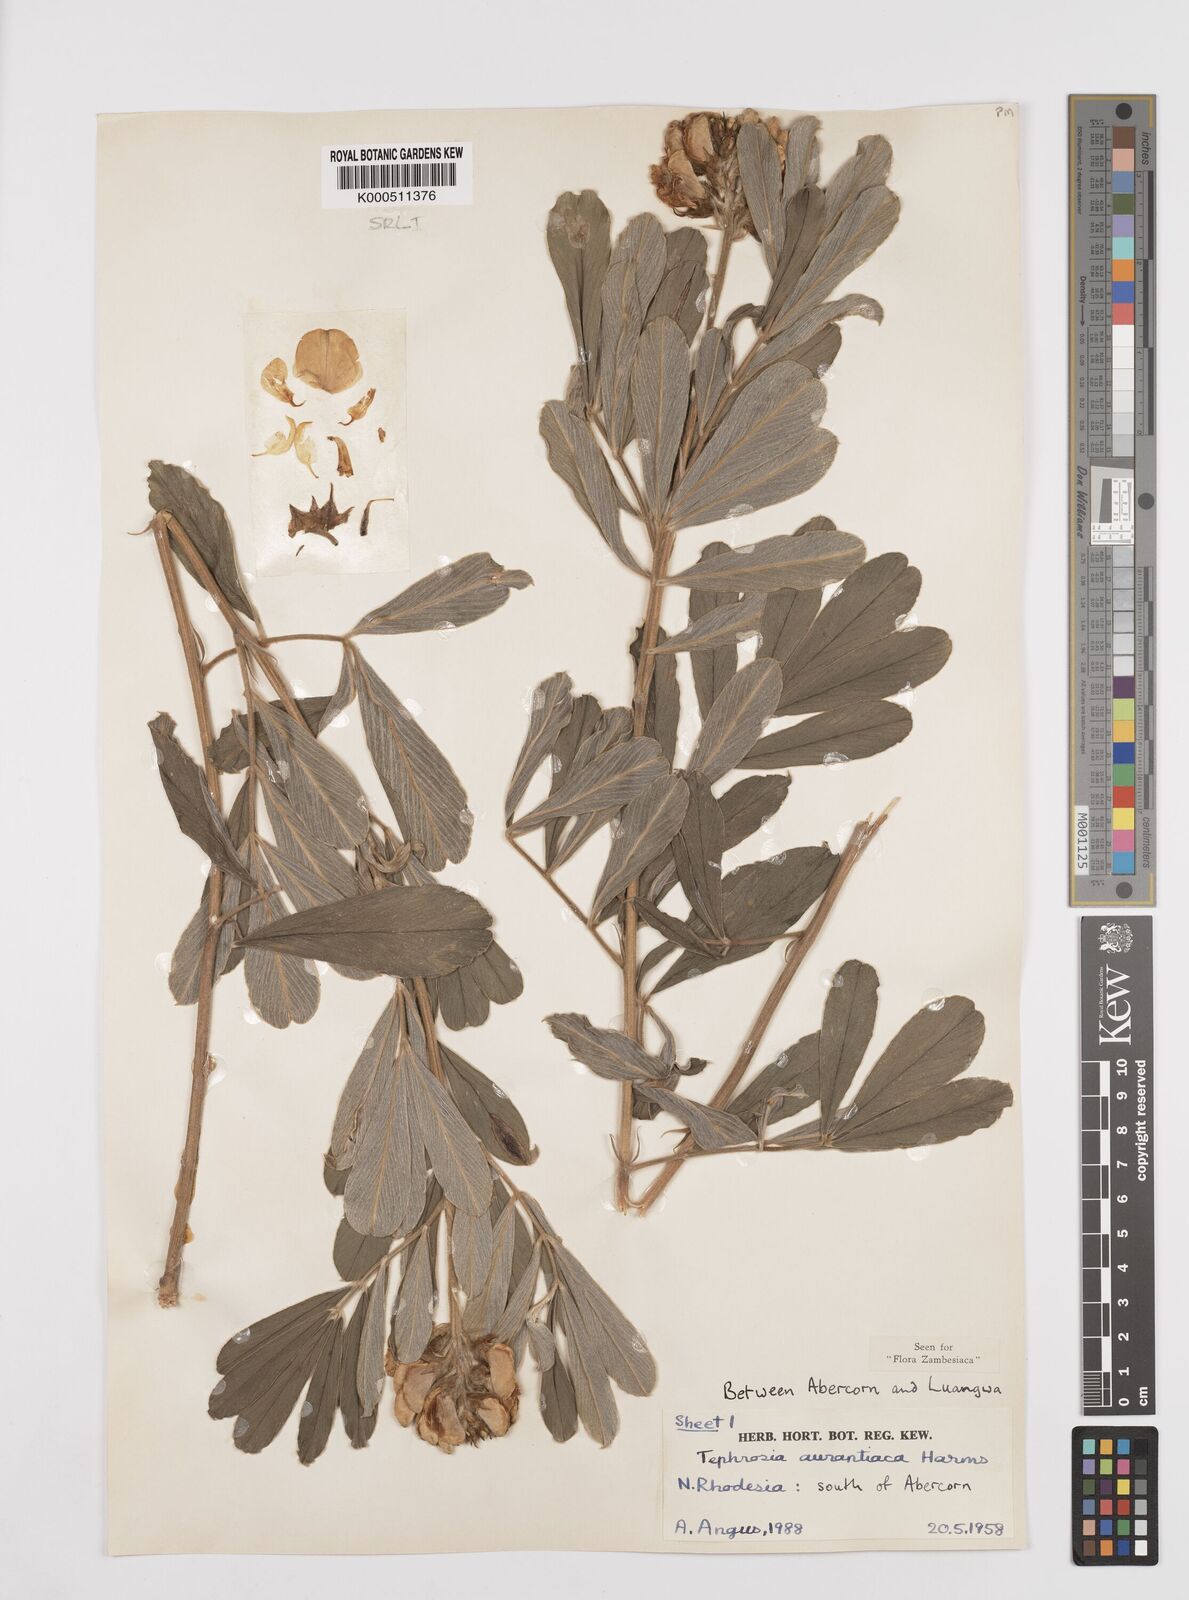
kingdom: Plantae
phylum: Tracheophyta
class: Magnoliopsida
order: Fabales
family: Fabaceae
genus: Tephrosia
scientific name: Tephrosia aurantiaca
